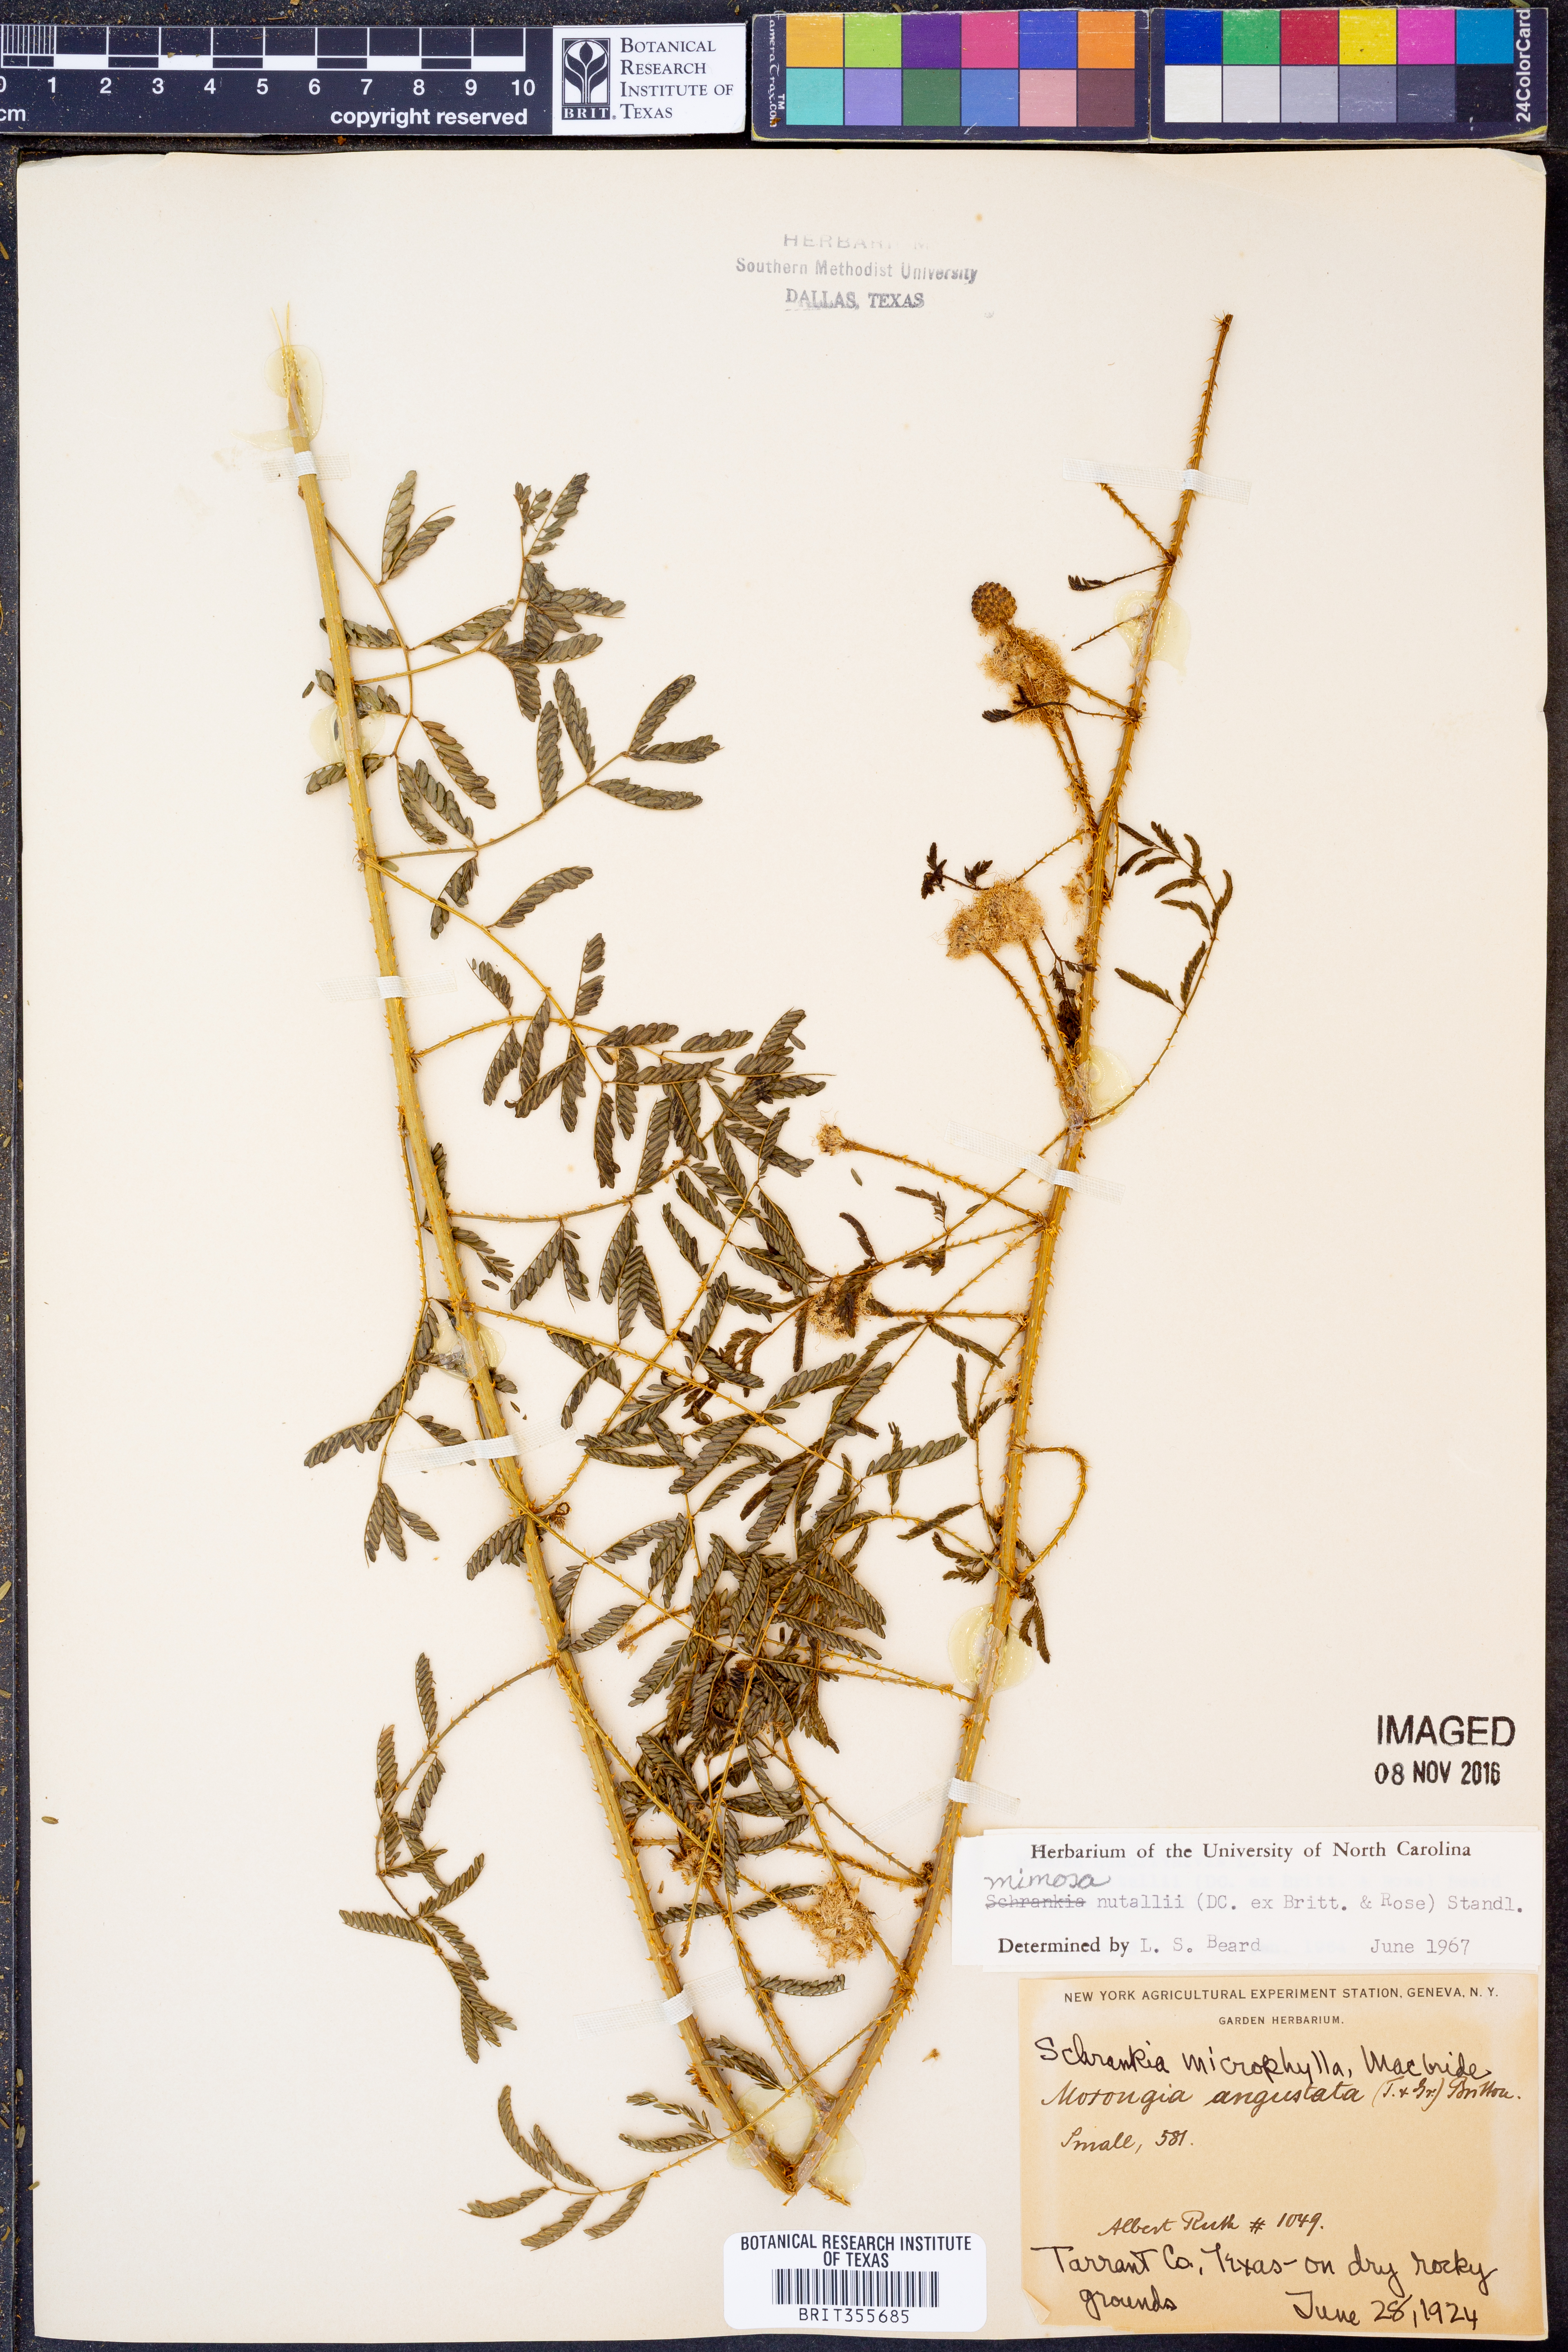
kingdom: Plantae
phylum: Tracheophyta
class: Magnoliopsida
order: Fabales
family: Fabaceae
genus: Mimosa
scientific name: Mimosa quadrivalvis
